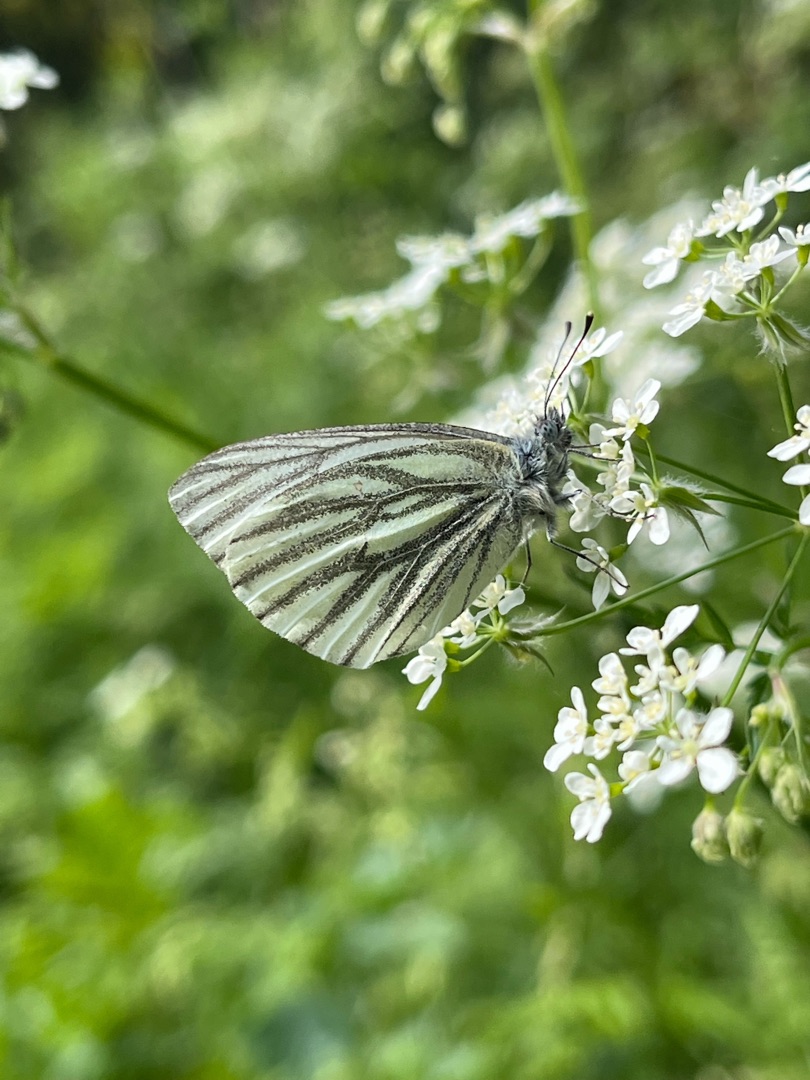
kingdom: Animalia
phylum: Arthropoda
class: Insecta
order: Lepidoptera
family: Pieridae
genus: Pieris
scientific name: Pieris napi
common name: Grønåret kålsommerfugl
